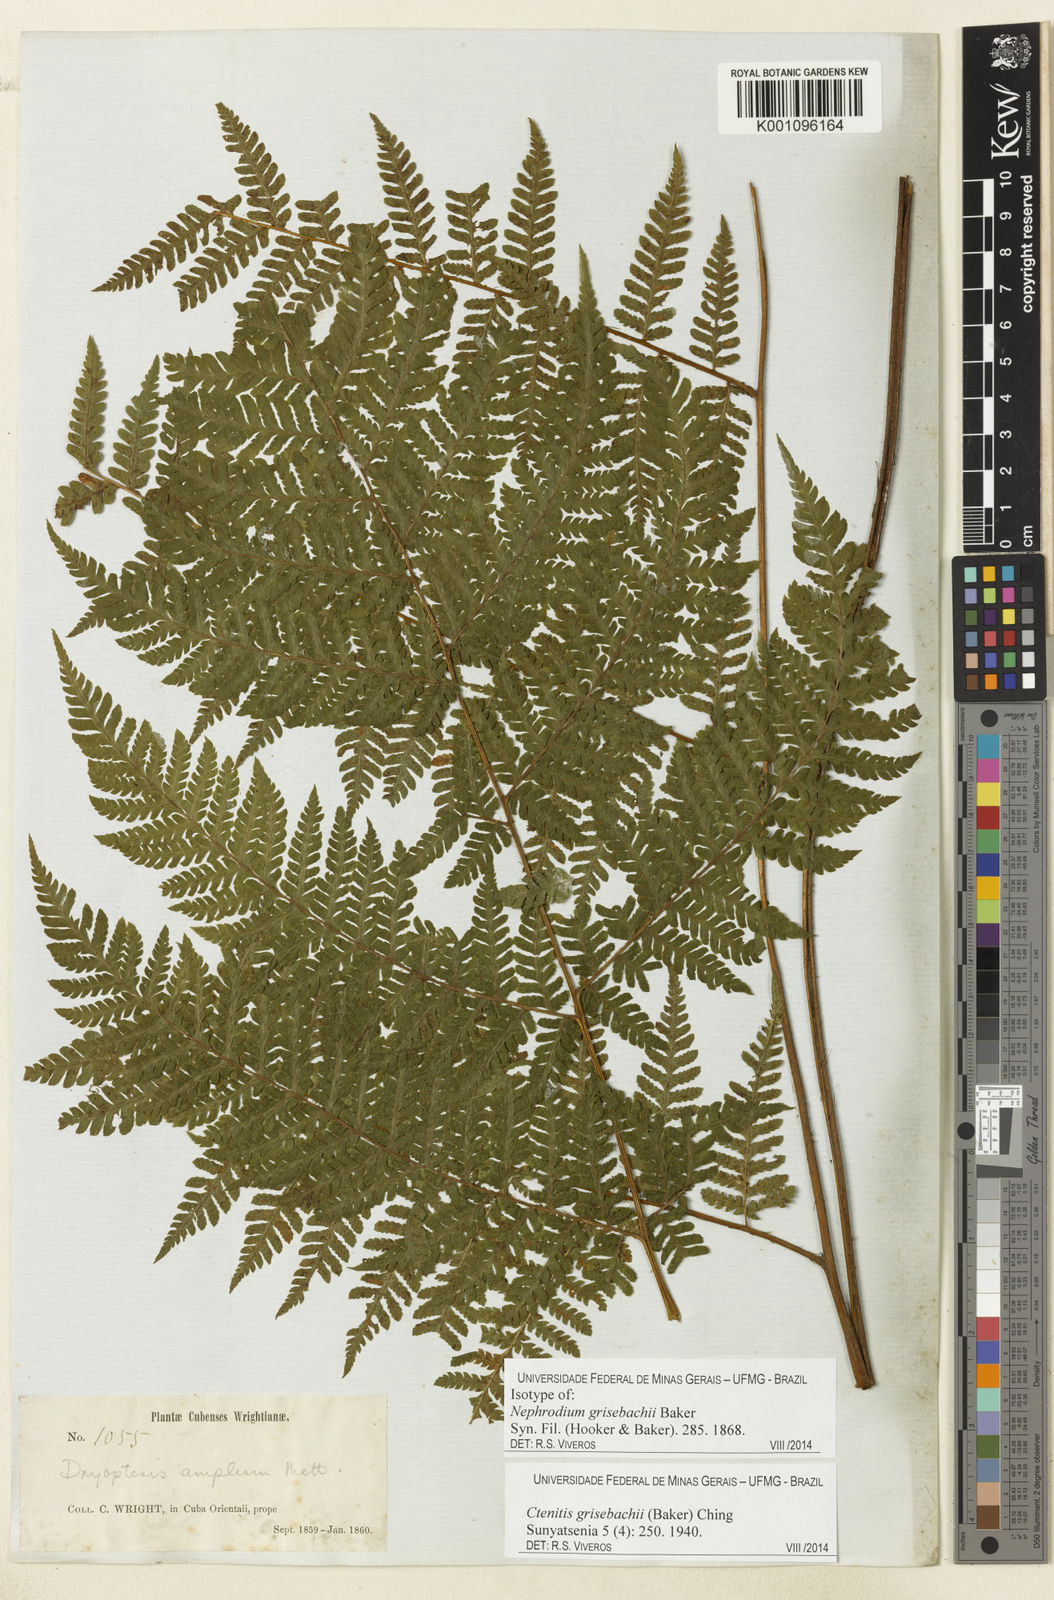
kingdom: Plantae
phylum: Tracheophyta
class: Polypodiopsida
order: Polypodiales
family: Dryopteridaceae
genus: Ctenitis
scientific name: Ctenitis grisebachii
